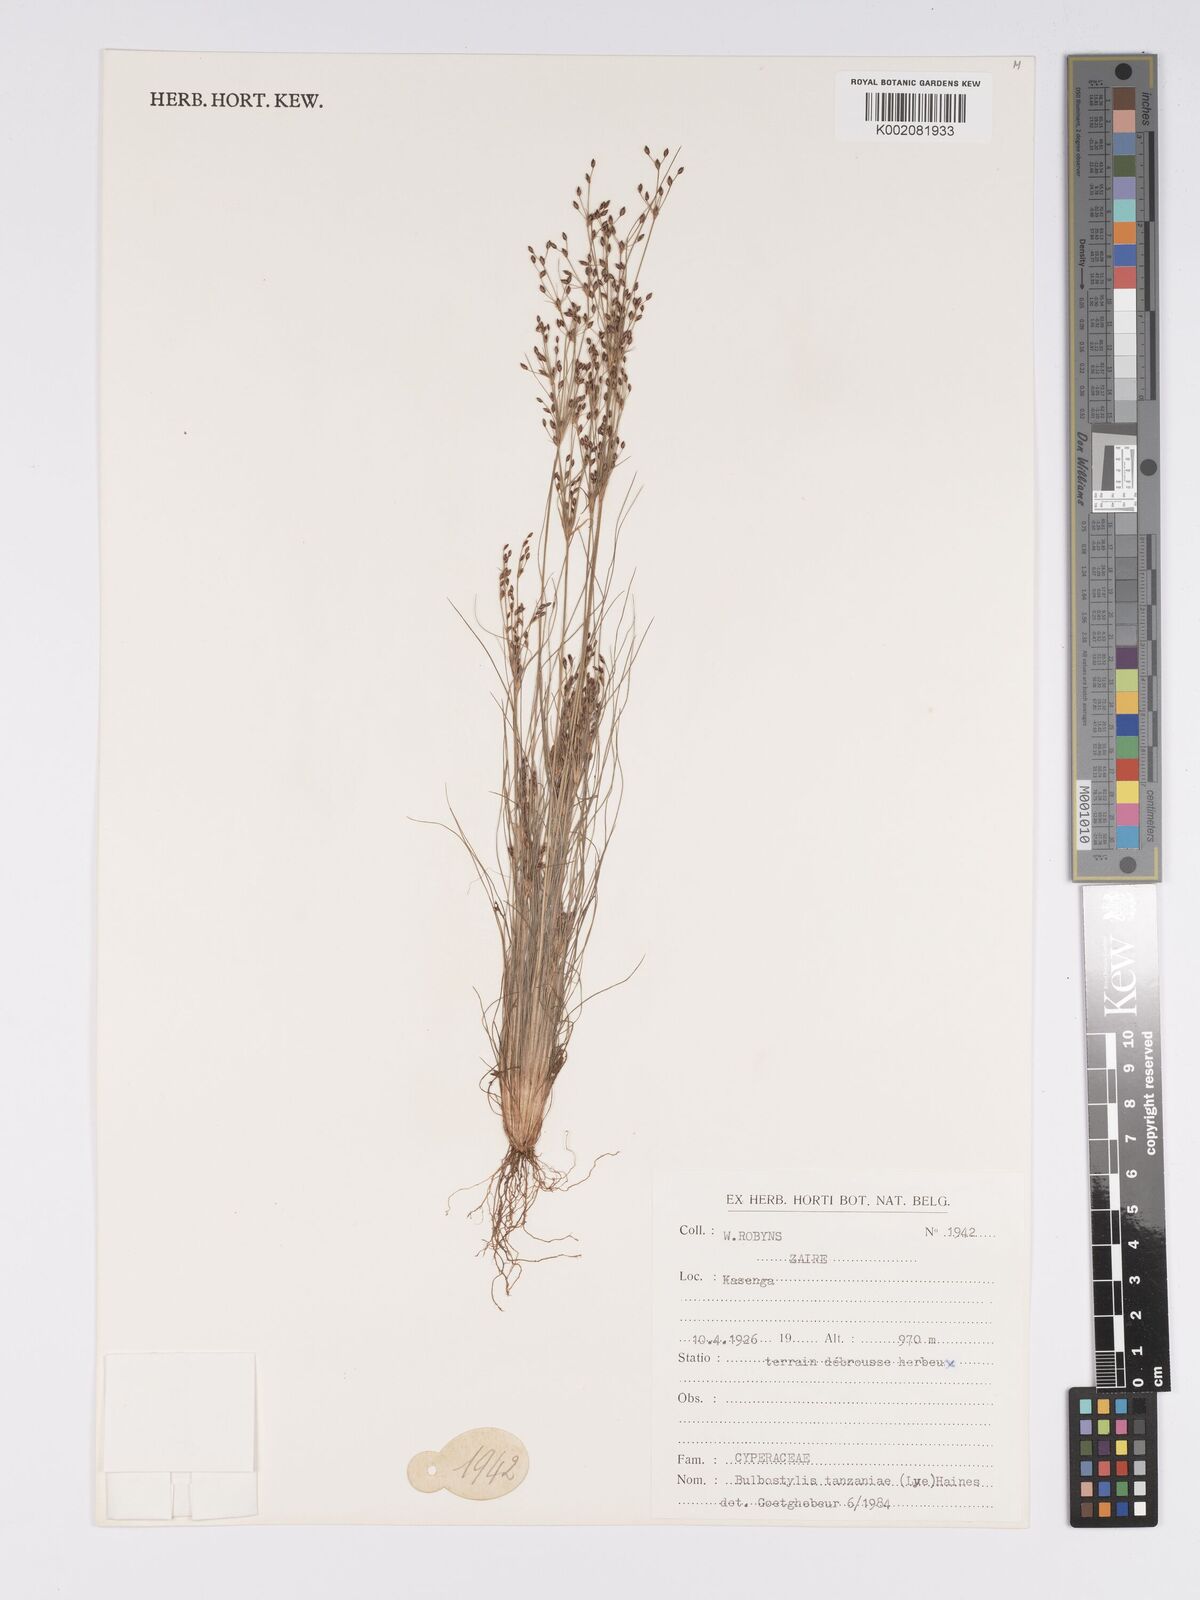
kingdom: Plantae
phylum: Tracheophyta
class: Liliopsida
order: Poales
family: Cyperaceae
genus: Bulbostylis
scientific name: Bulbostylis tanzaniae
